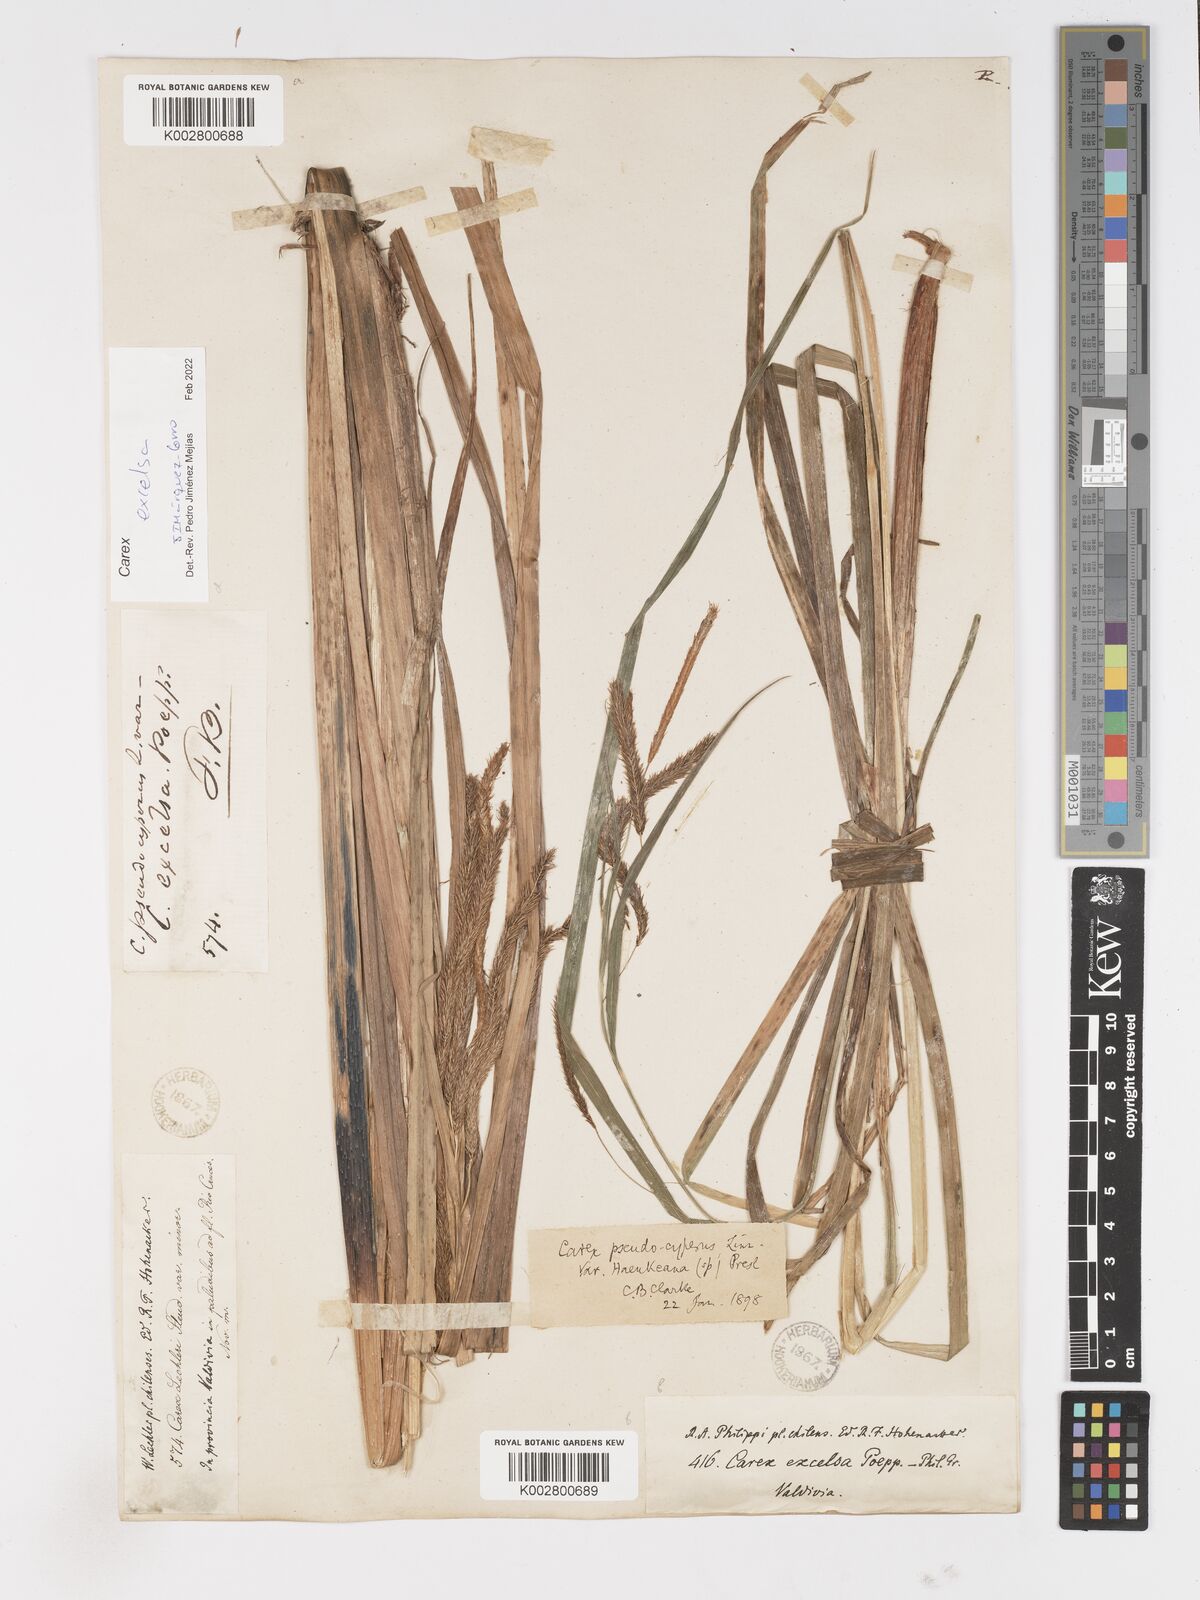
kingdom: Plantae
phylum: Tracheophyta
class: Liliopsida
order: Poales
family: Cyperaceae
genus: Carex
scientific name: Carex excelsa
